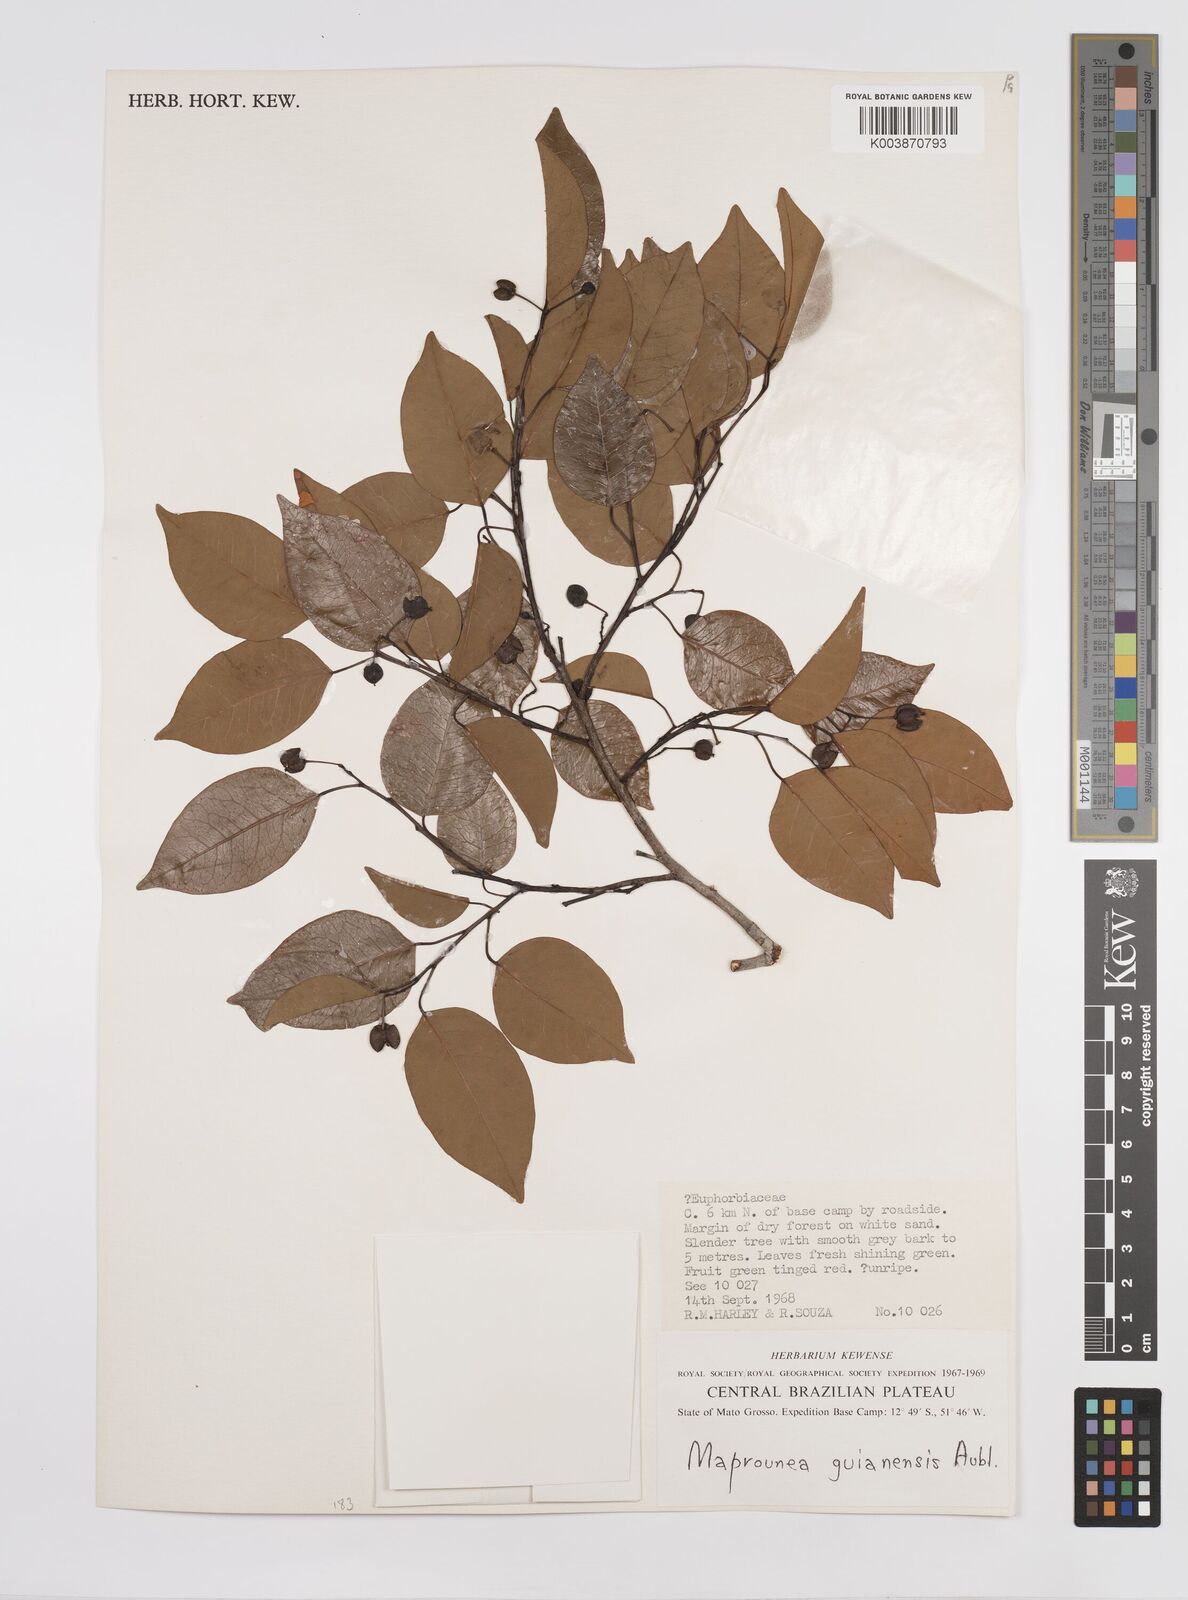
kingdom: Plantae
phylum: Tracheophyta
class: Magnoliopsida
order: Malpighiales
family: Euphorbiaceae
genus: Maprounea
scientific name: Maprounea guianensis
